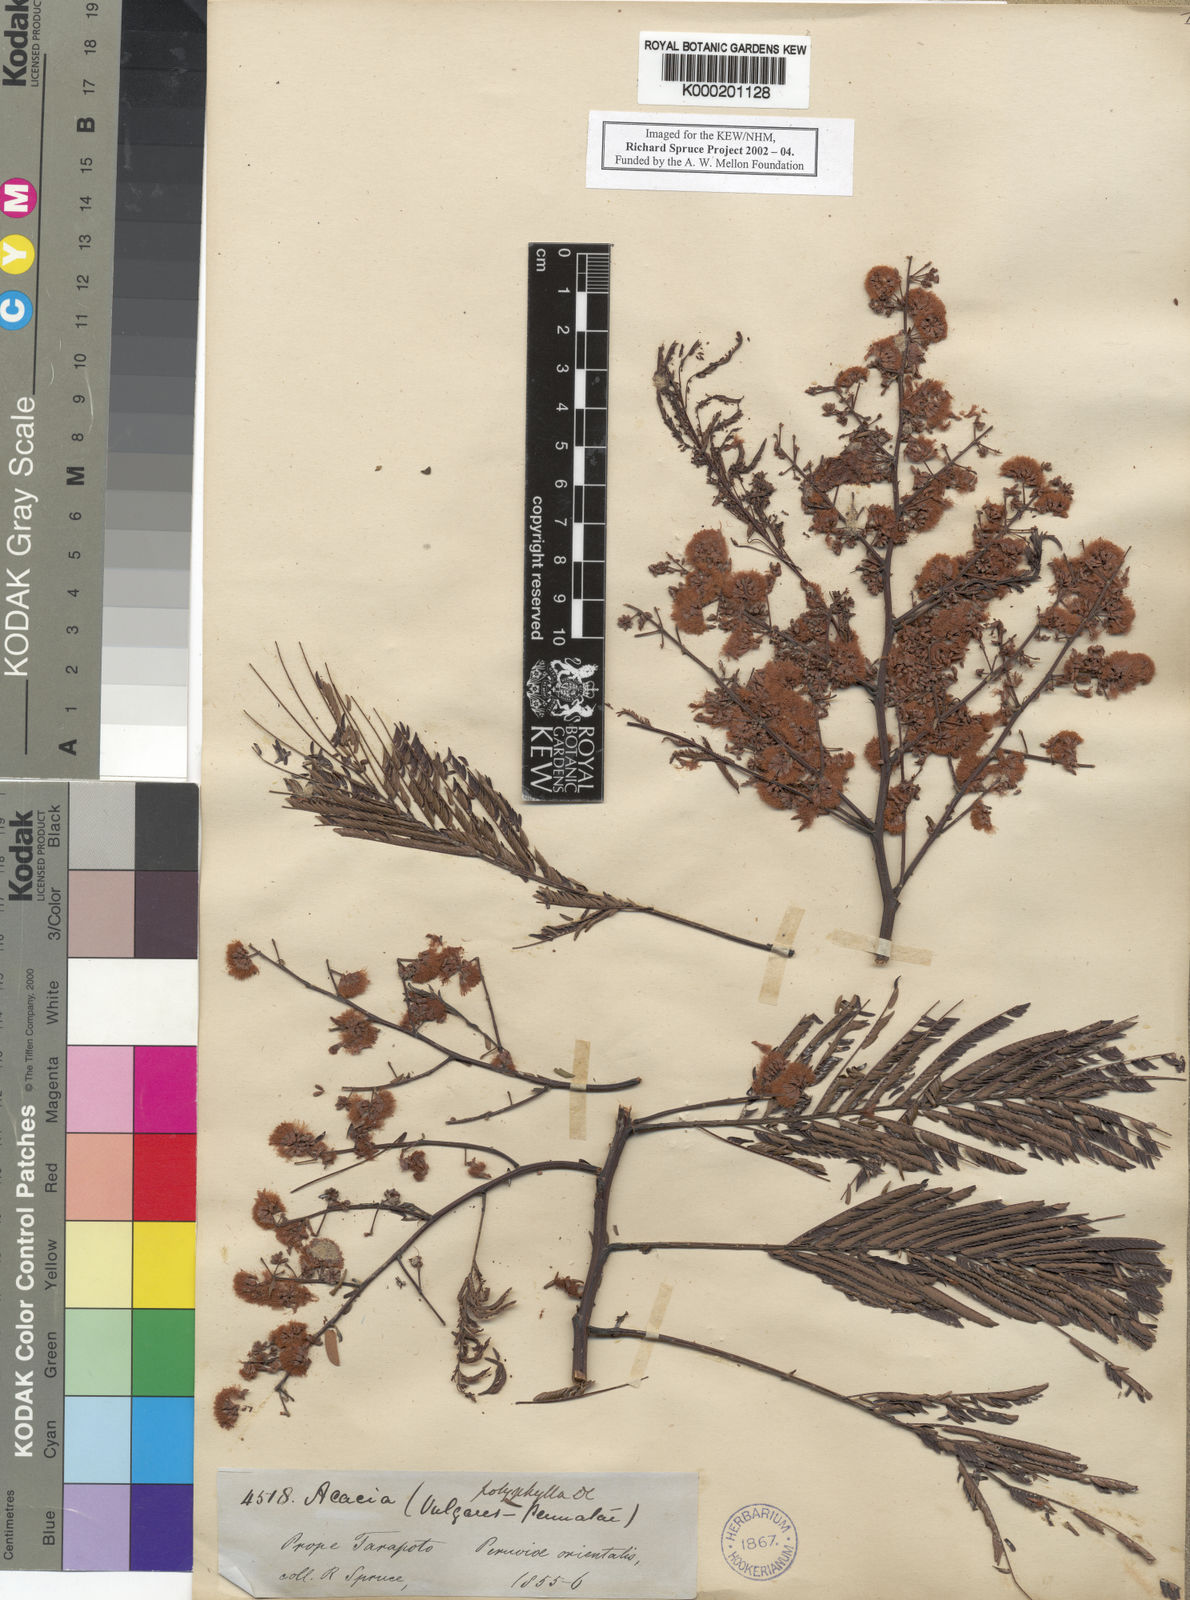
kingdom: Plantae
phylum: Tracheophyta
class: Magnoliopsida
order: Fabales
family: Fabaceae
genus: Senegalia
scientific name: Senegalia polyphylla
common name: White-tamarind
